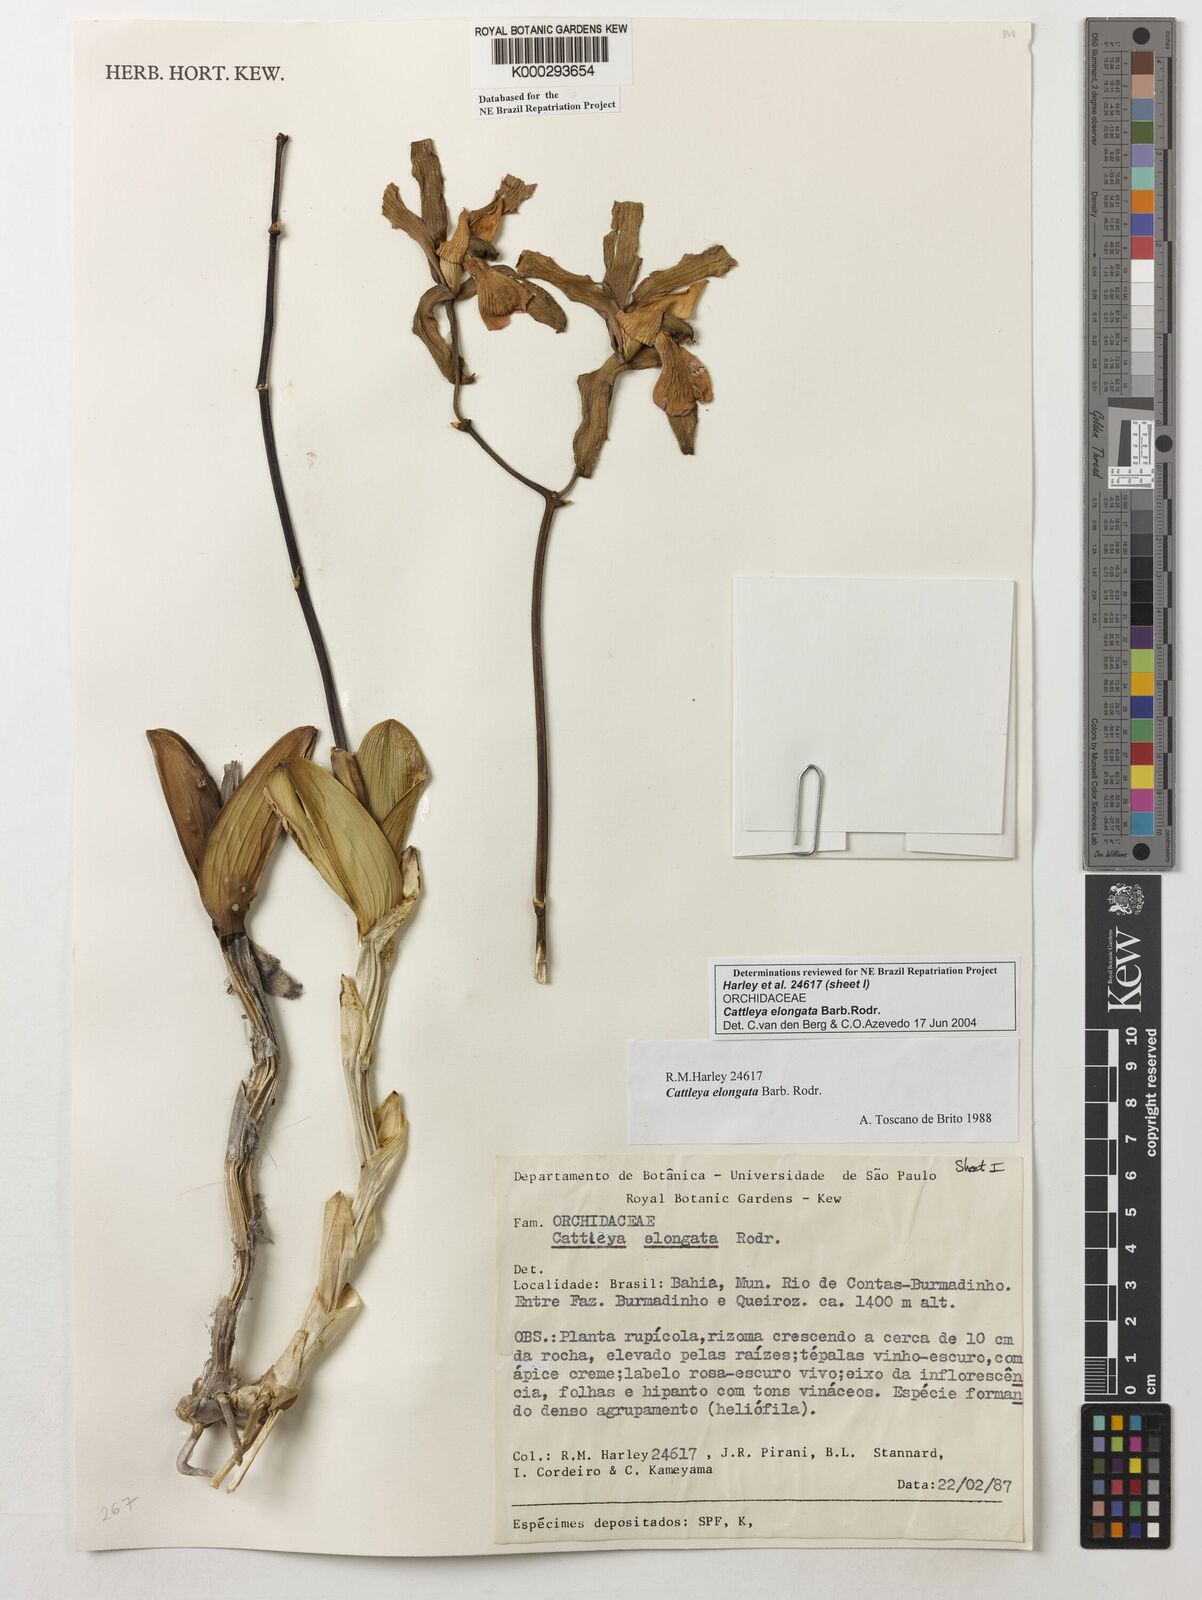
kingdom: Plantae
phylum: Tracheophyta
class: Liliopsida
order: Asparagales
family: Orchidaceae
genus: Cattleya
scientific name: Cattleya elongata
